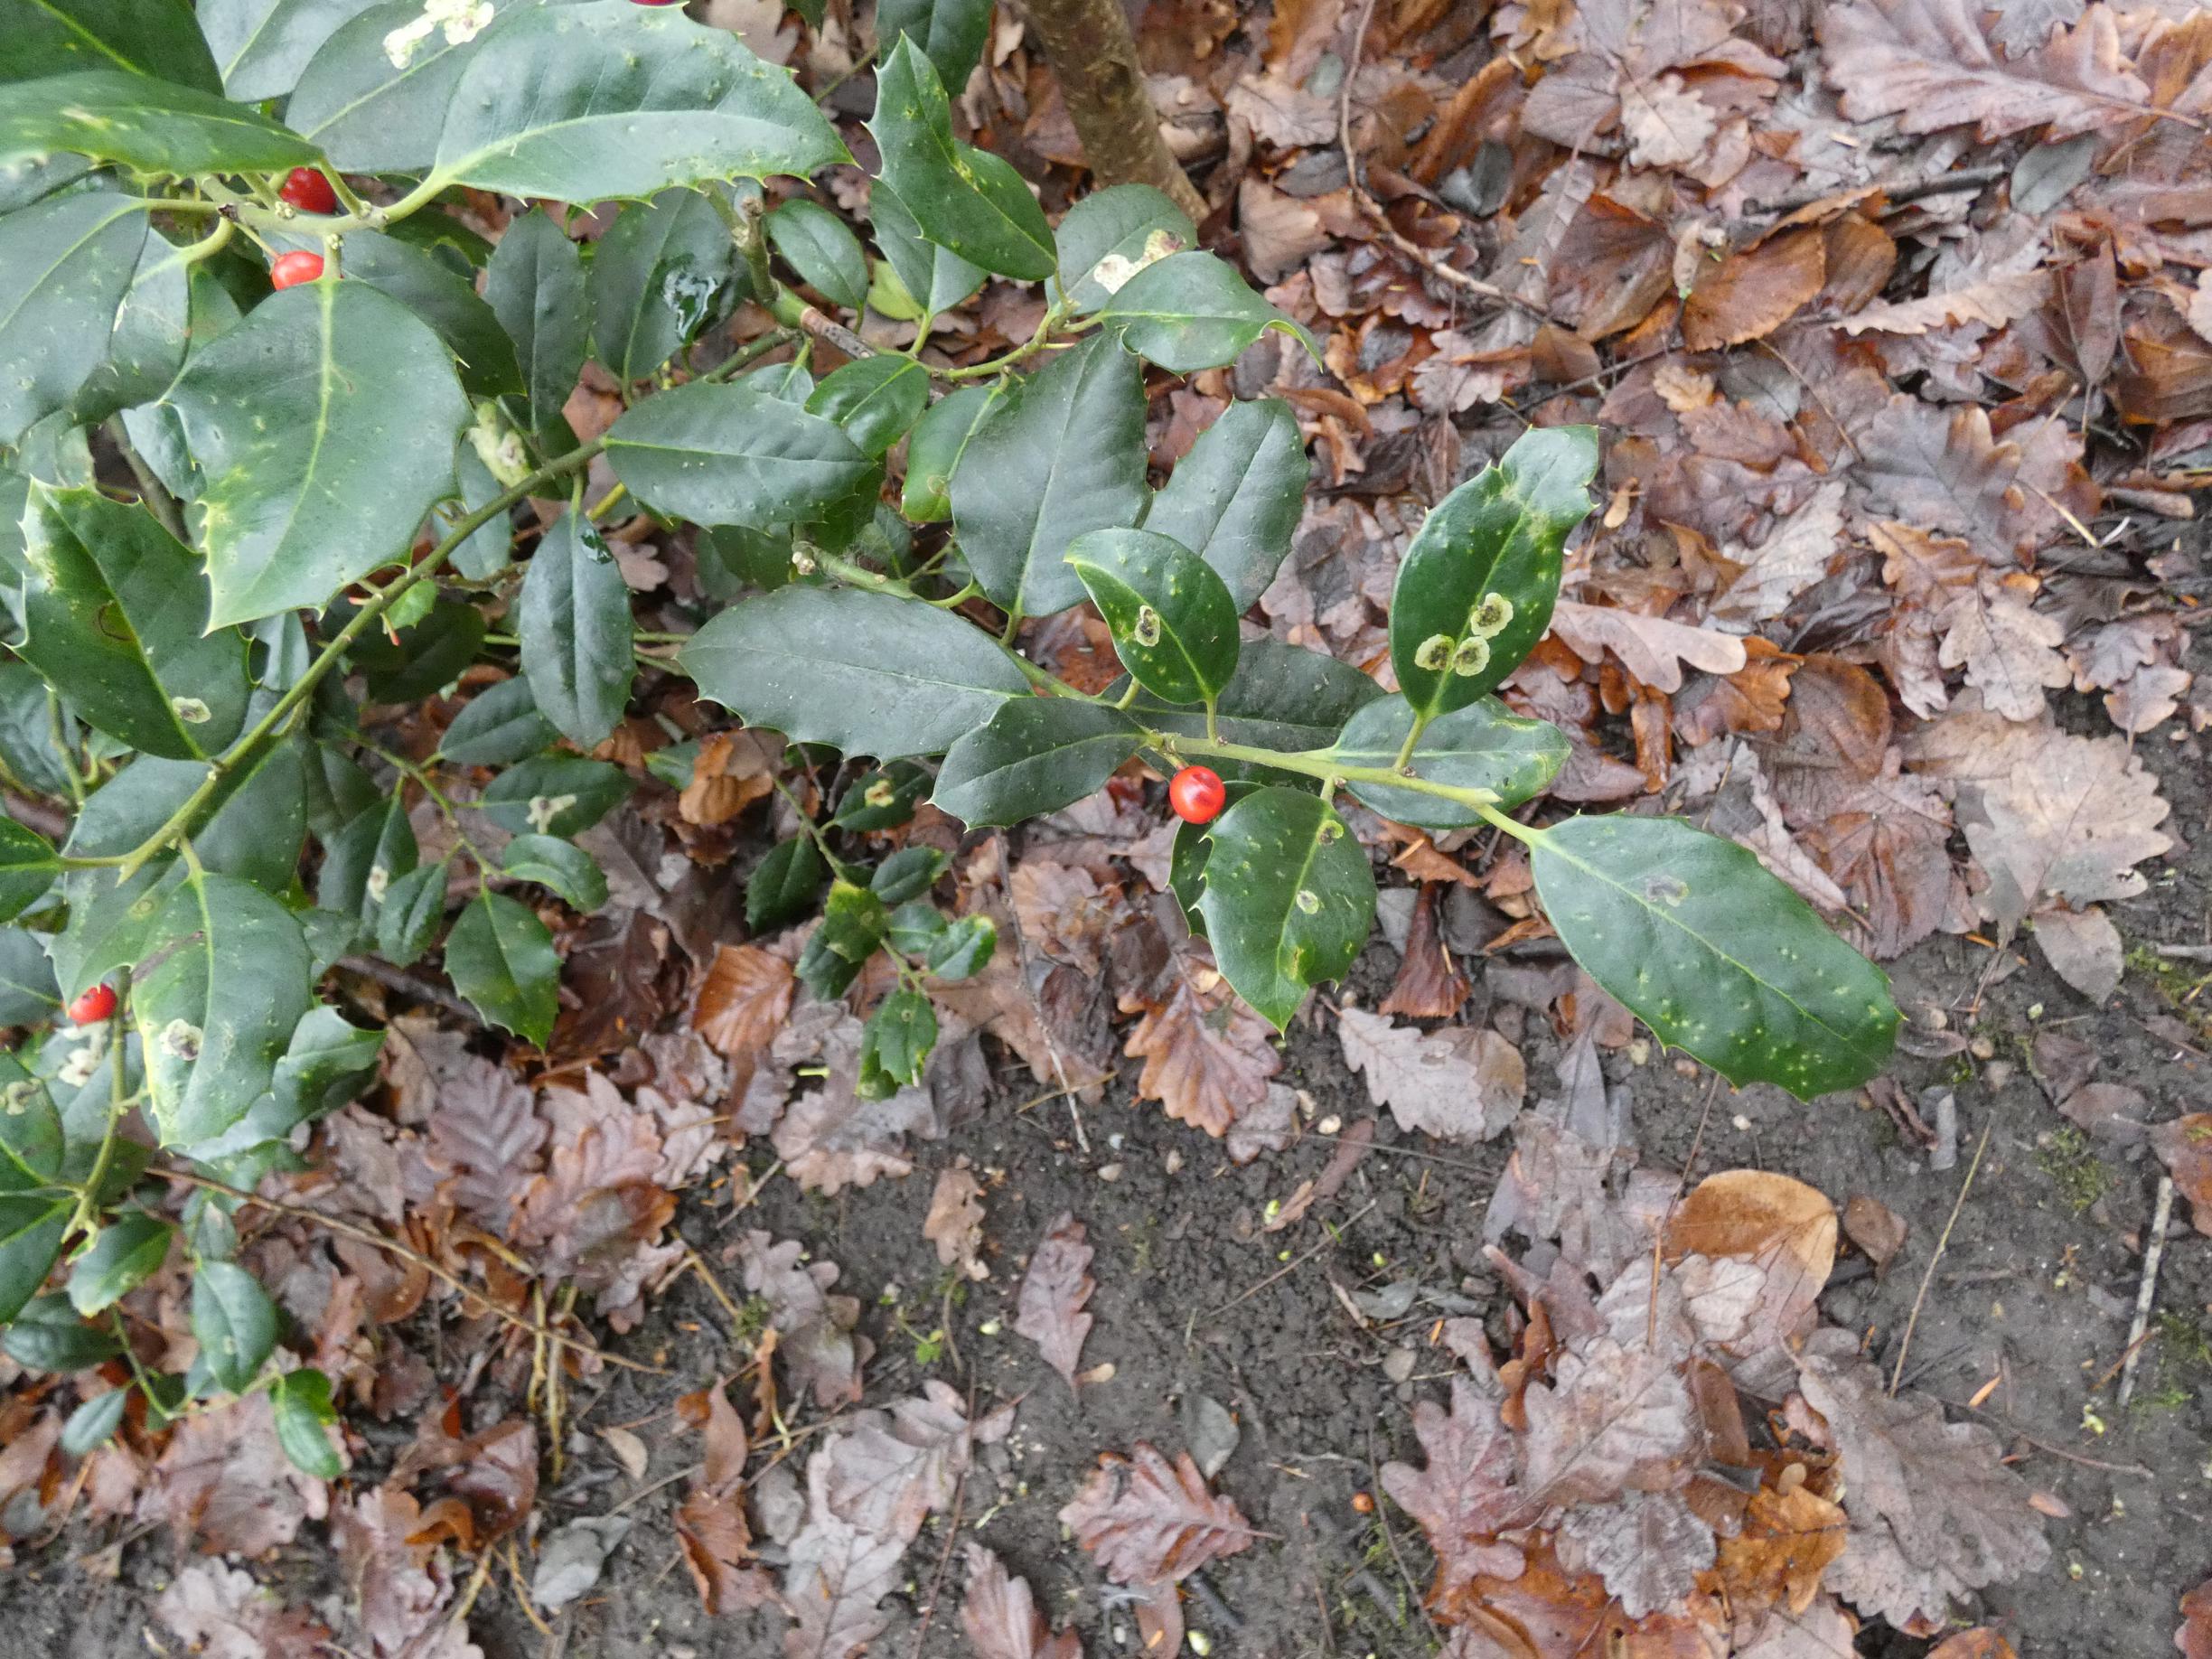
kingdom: Animalia
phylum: Arthropoda
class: Insecta
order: Diptera
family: Agromyzidae
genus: Phytomyza
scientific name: Phytomyza ilicis
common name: Kristtornminérflue
